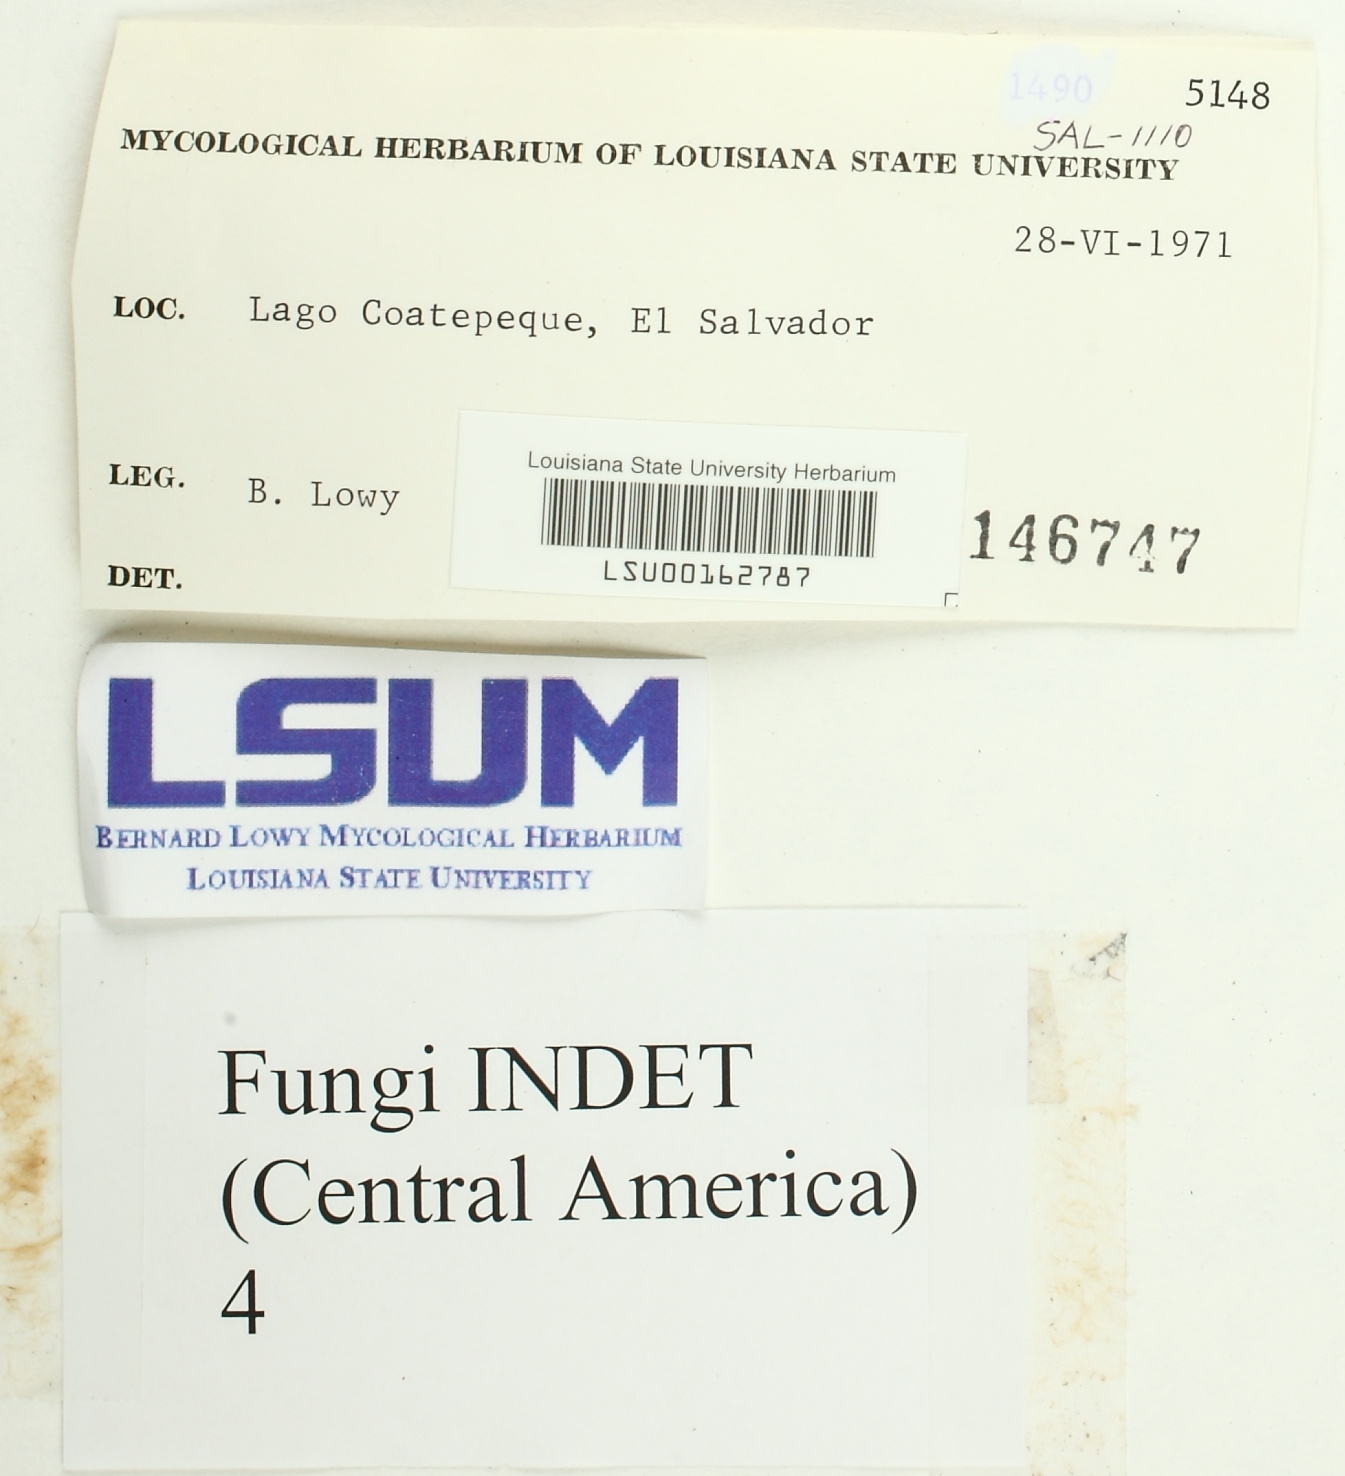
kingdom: Fungi
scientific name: Fungi
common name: Fungi
